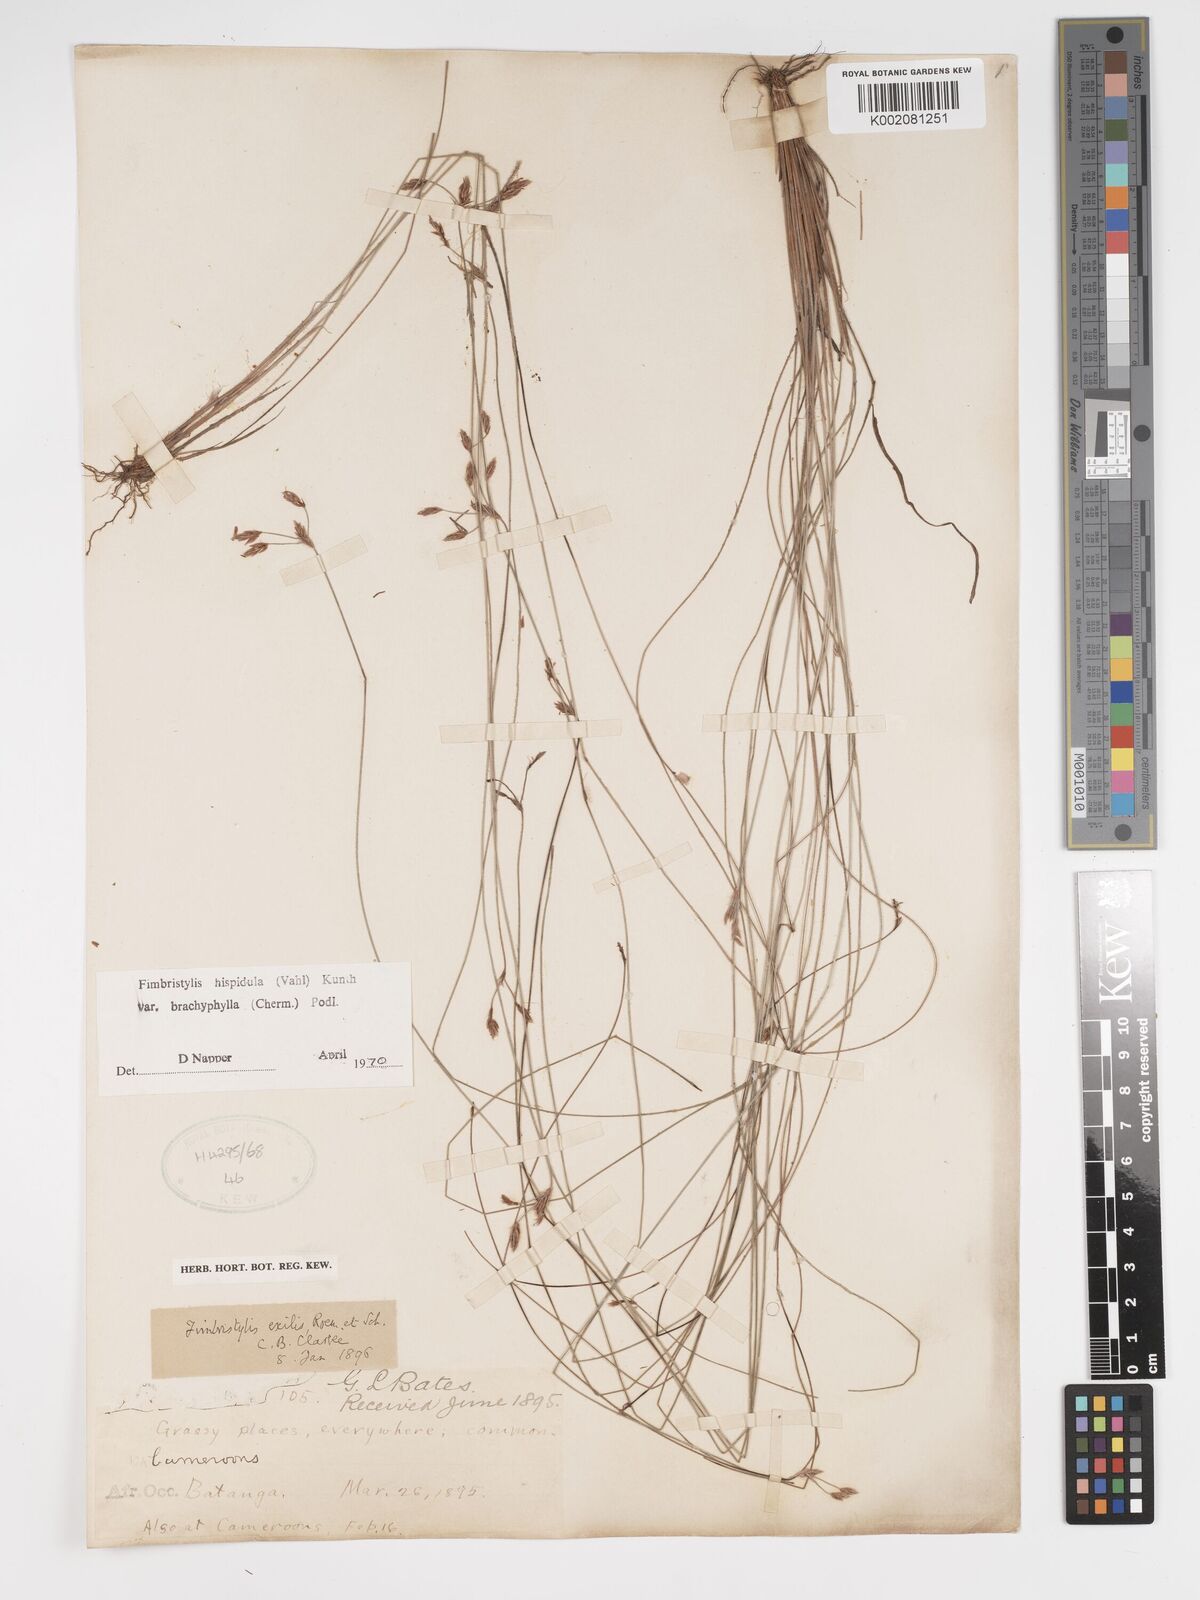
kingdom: Plantae
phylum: Tracheophyta
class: Liliopsida
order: Poales
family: Cyperaceae
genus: Bulbostylis
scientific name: Bulbostylis hispidula
